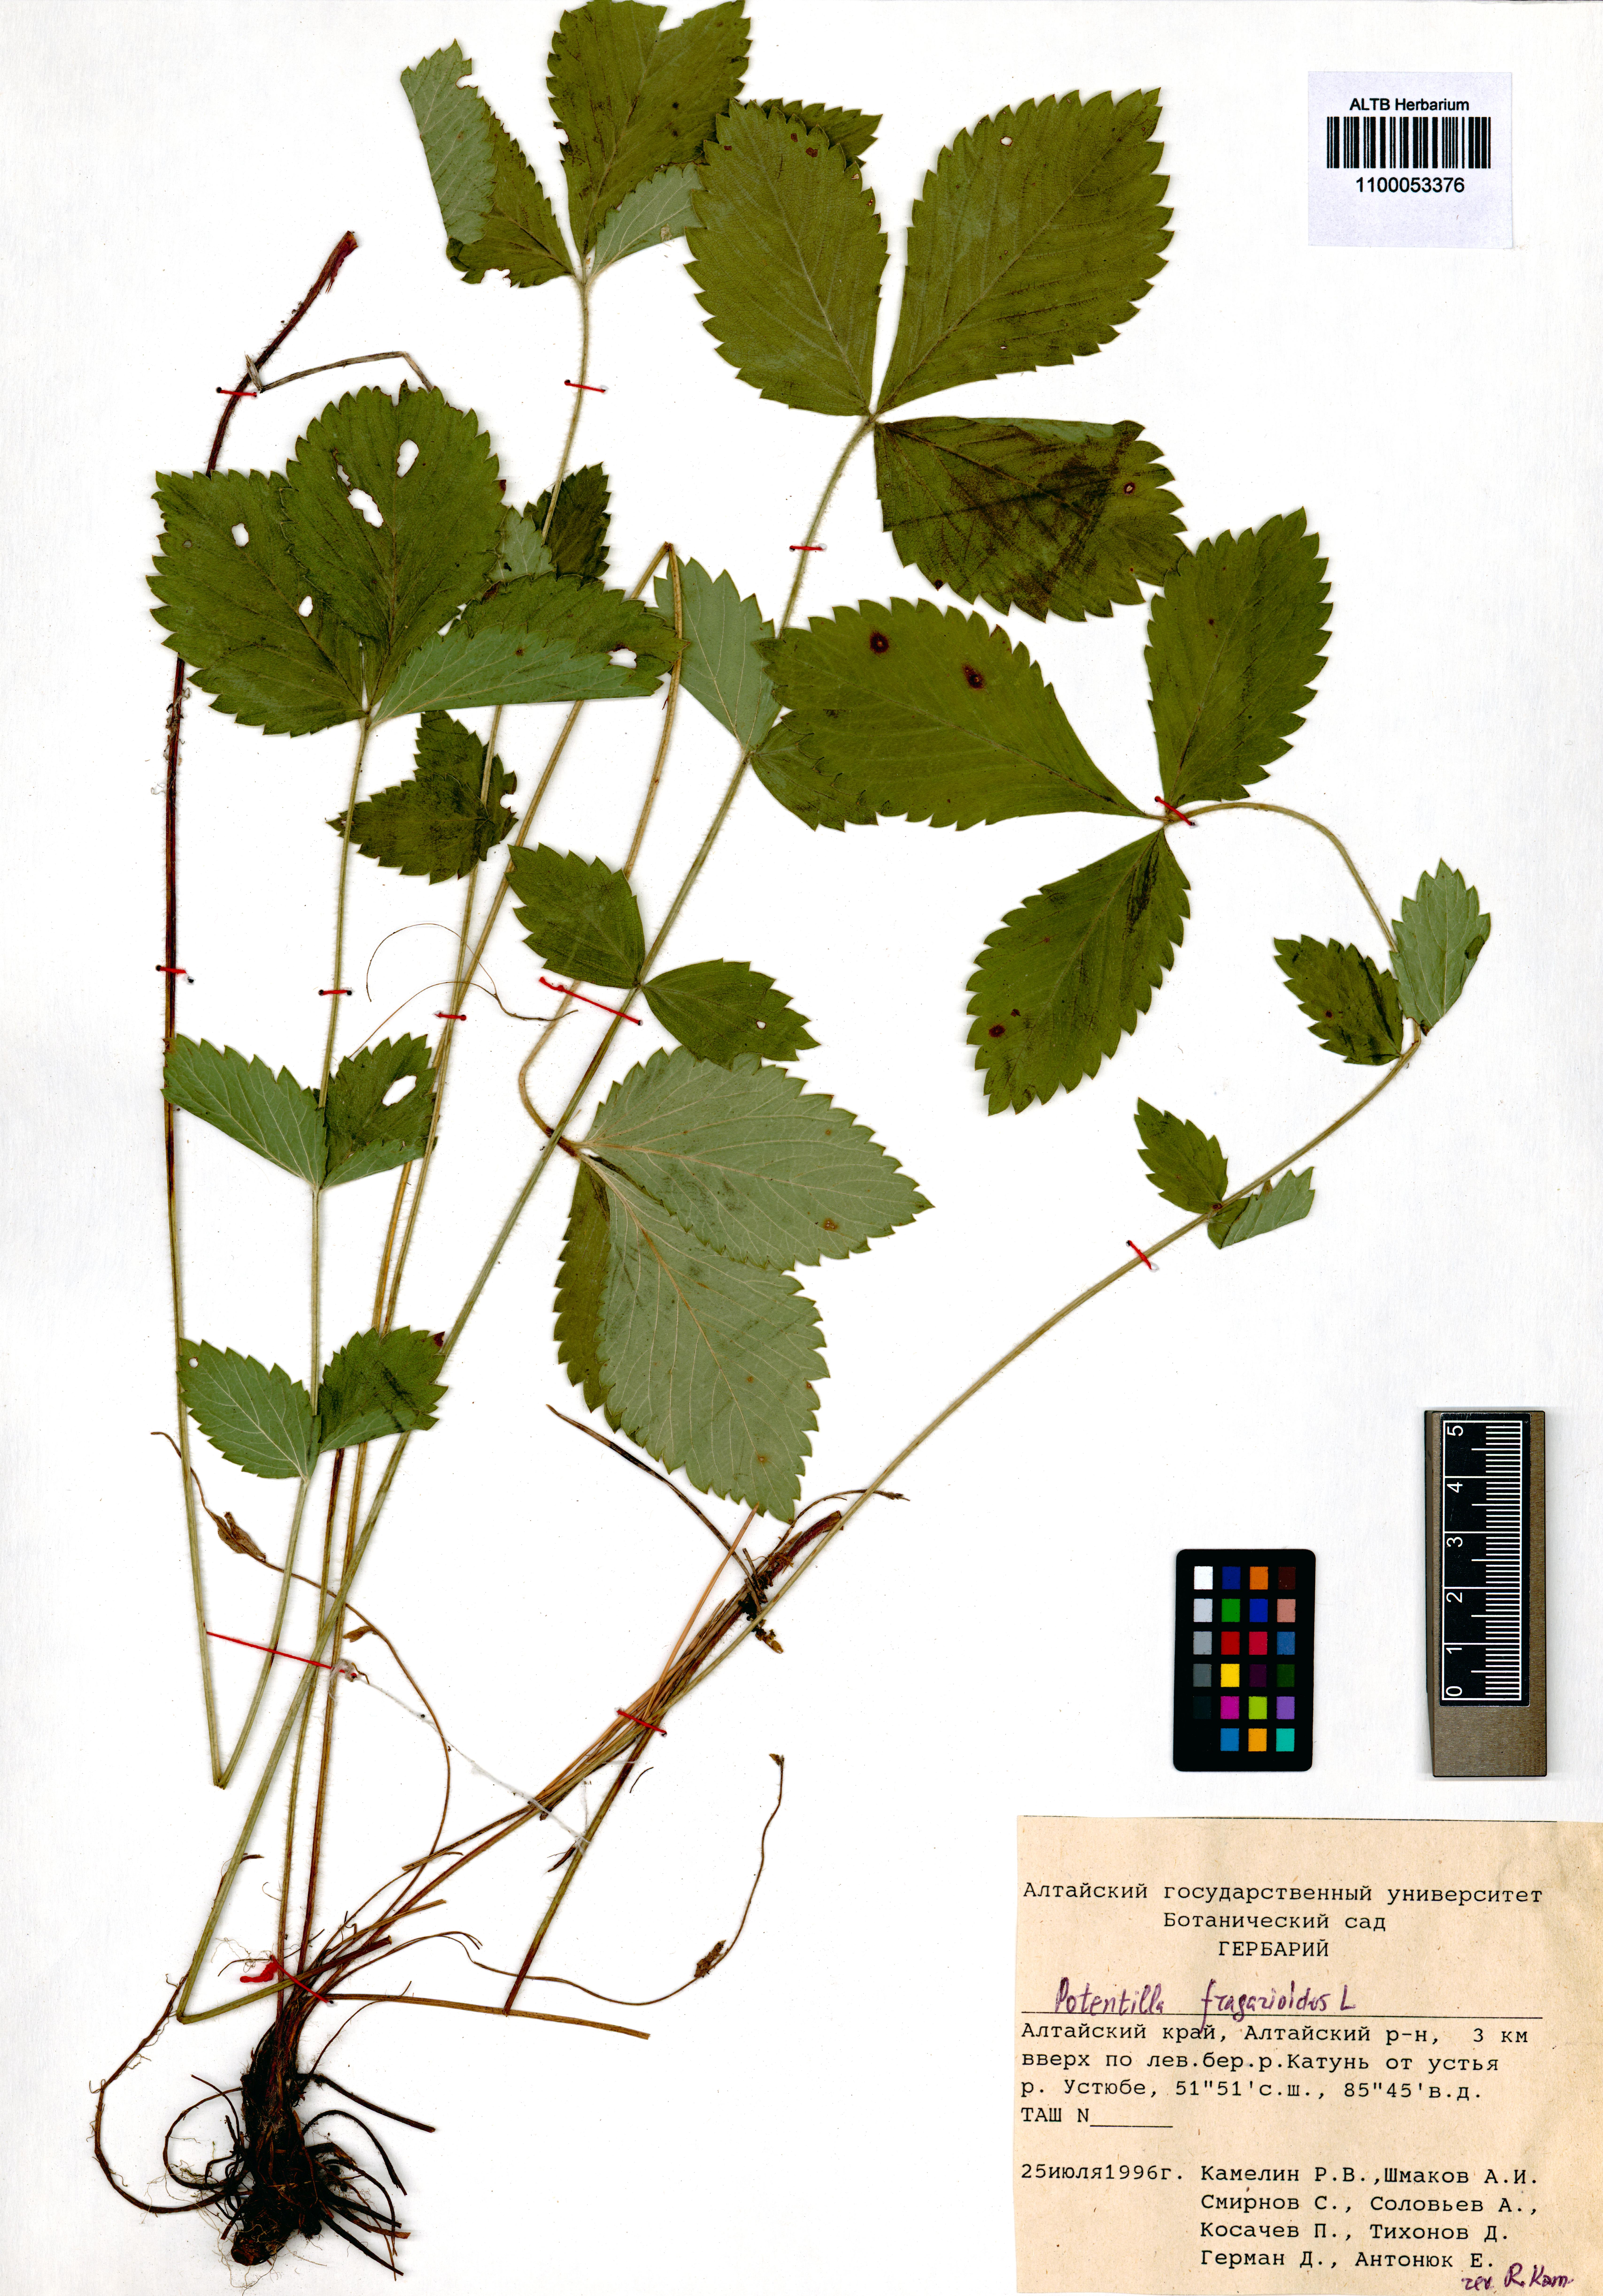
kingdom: Plantae
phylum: Tracheophyta
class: Magnoliopsida
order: Rosales
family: Rosaceae
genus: Potentilla
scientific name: Potentilla fragarioides
